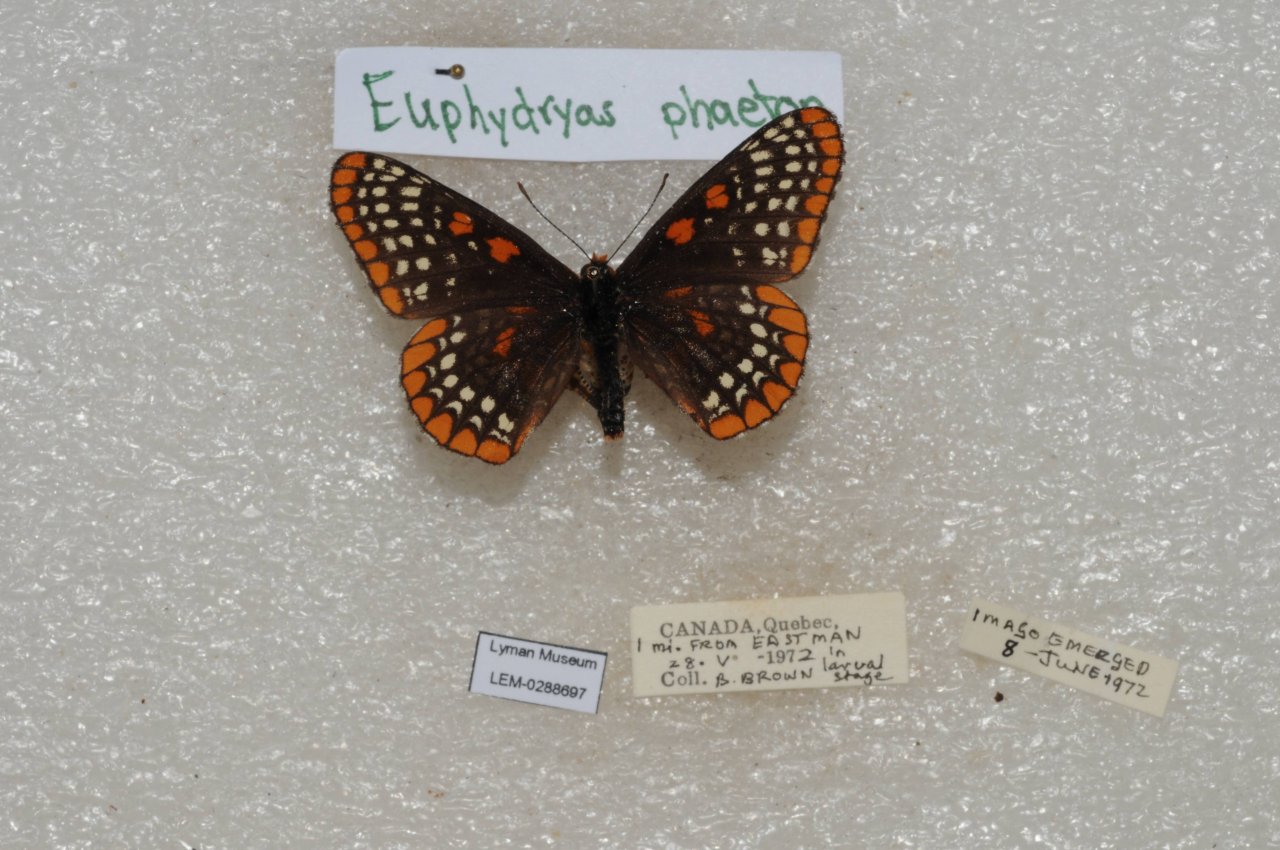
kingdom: Animalia
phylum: Arthropoda
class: Insecta
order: Lepidoptera
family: Nymphalidae
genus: Euphydryas
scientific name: Euphydryas phaeton
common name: Baltimore Checkerspot
